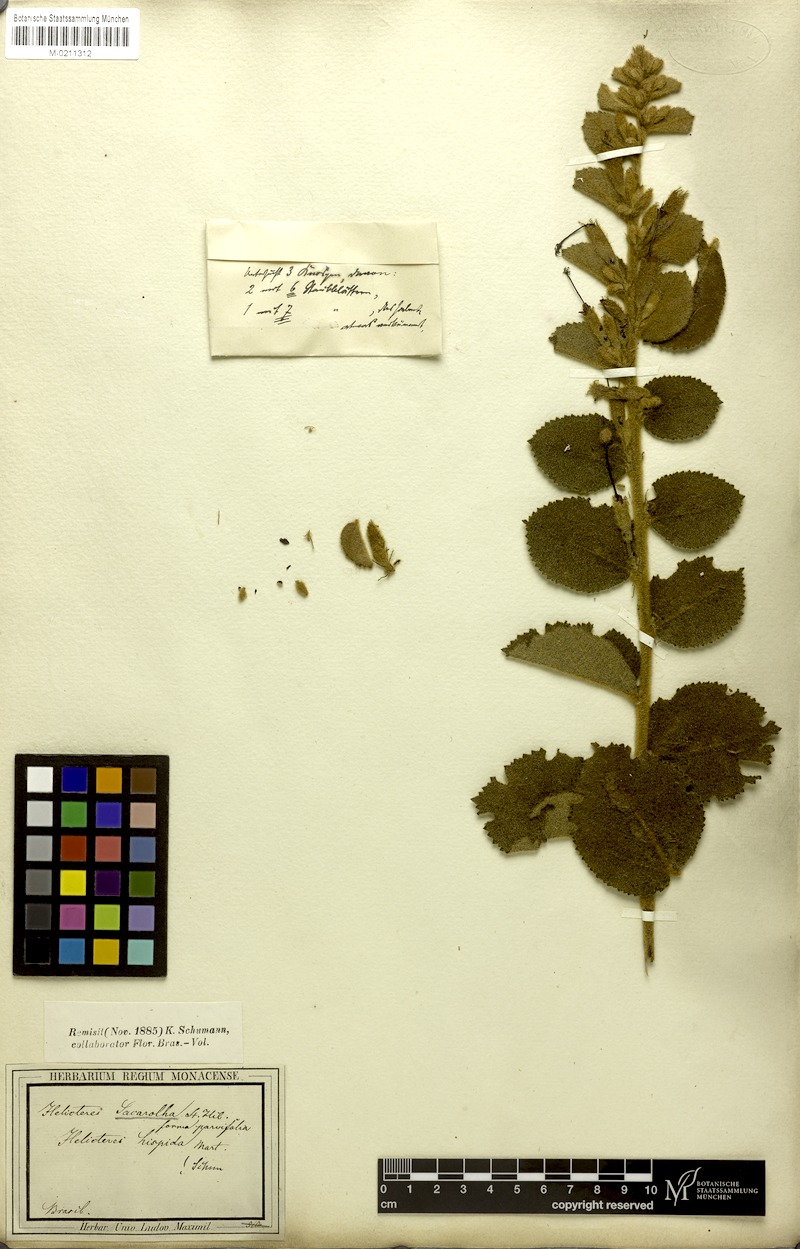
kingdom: Plantae
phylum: Tracheophyta
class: Magnoliopsida
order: Malvales
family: Malvaceae
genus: Helicteres
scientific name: Helicteres sacarolha
